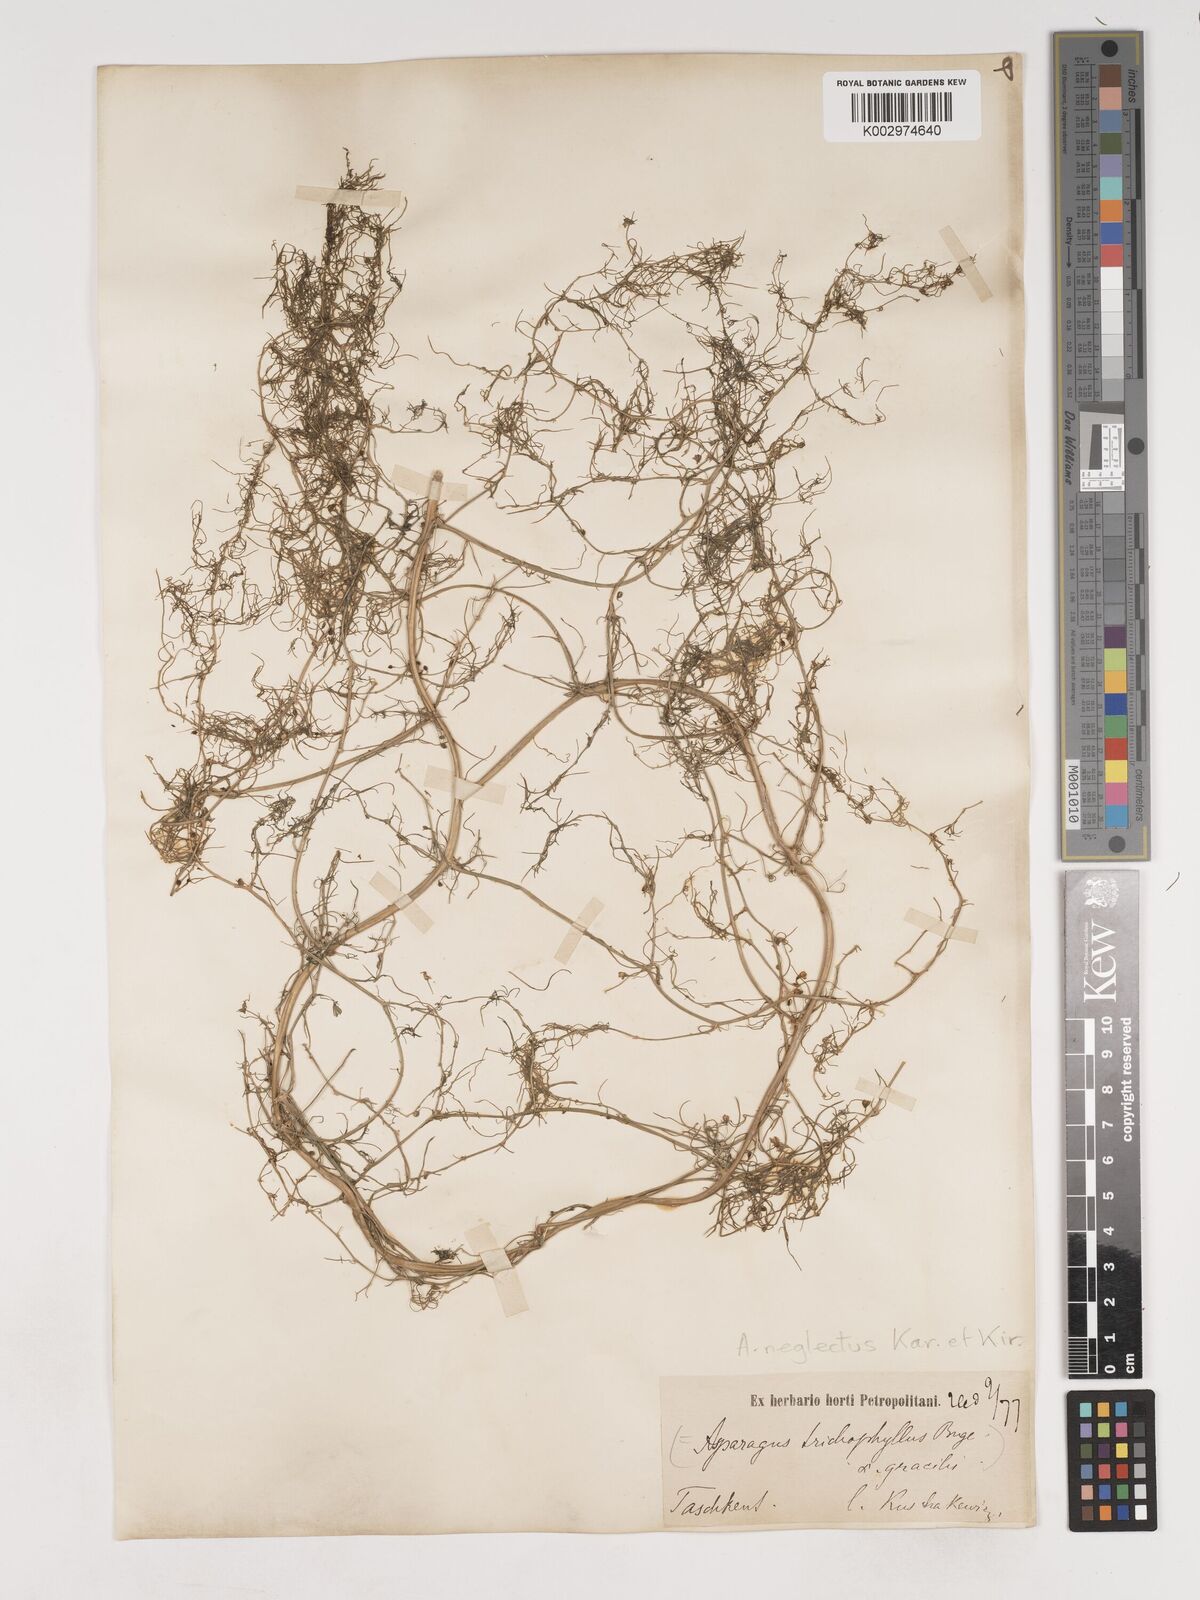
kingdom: Plantae
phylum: Tracheophyta
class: Liliopsida
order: Asparagales
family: Asparagaceae
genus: Asparagus
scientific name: Asparagus neglectus
